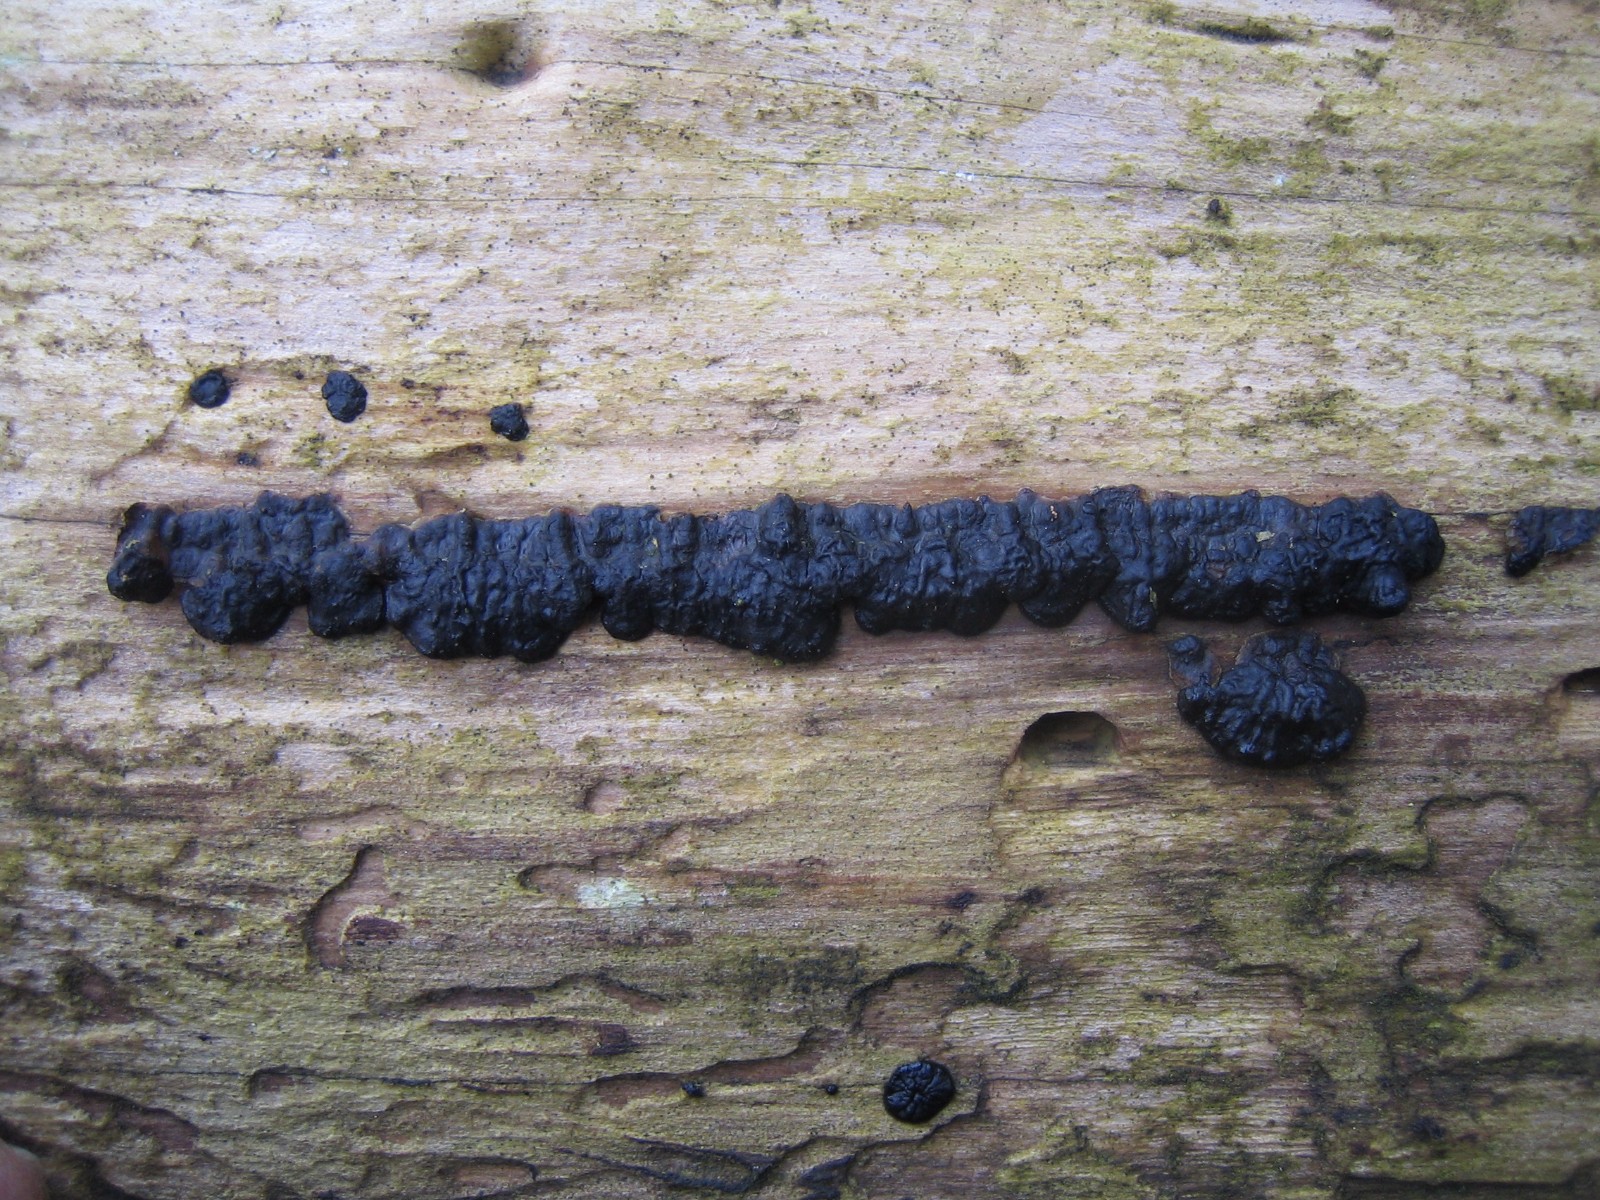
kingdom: Fungi
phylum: Basidiomycota
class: Agaricomycetes
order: Auriculariales
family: Auriculariaceae
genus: Exidia
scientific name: Exidia pithya
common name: gran-bævretop
